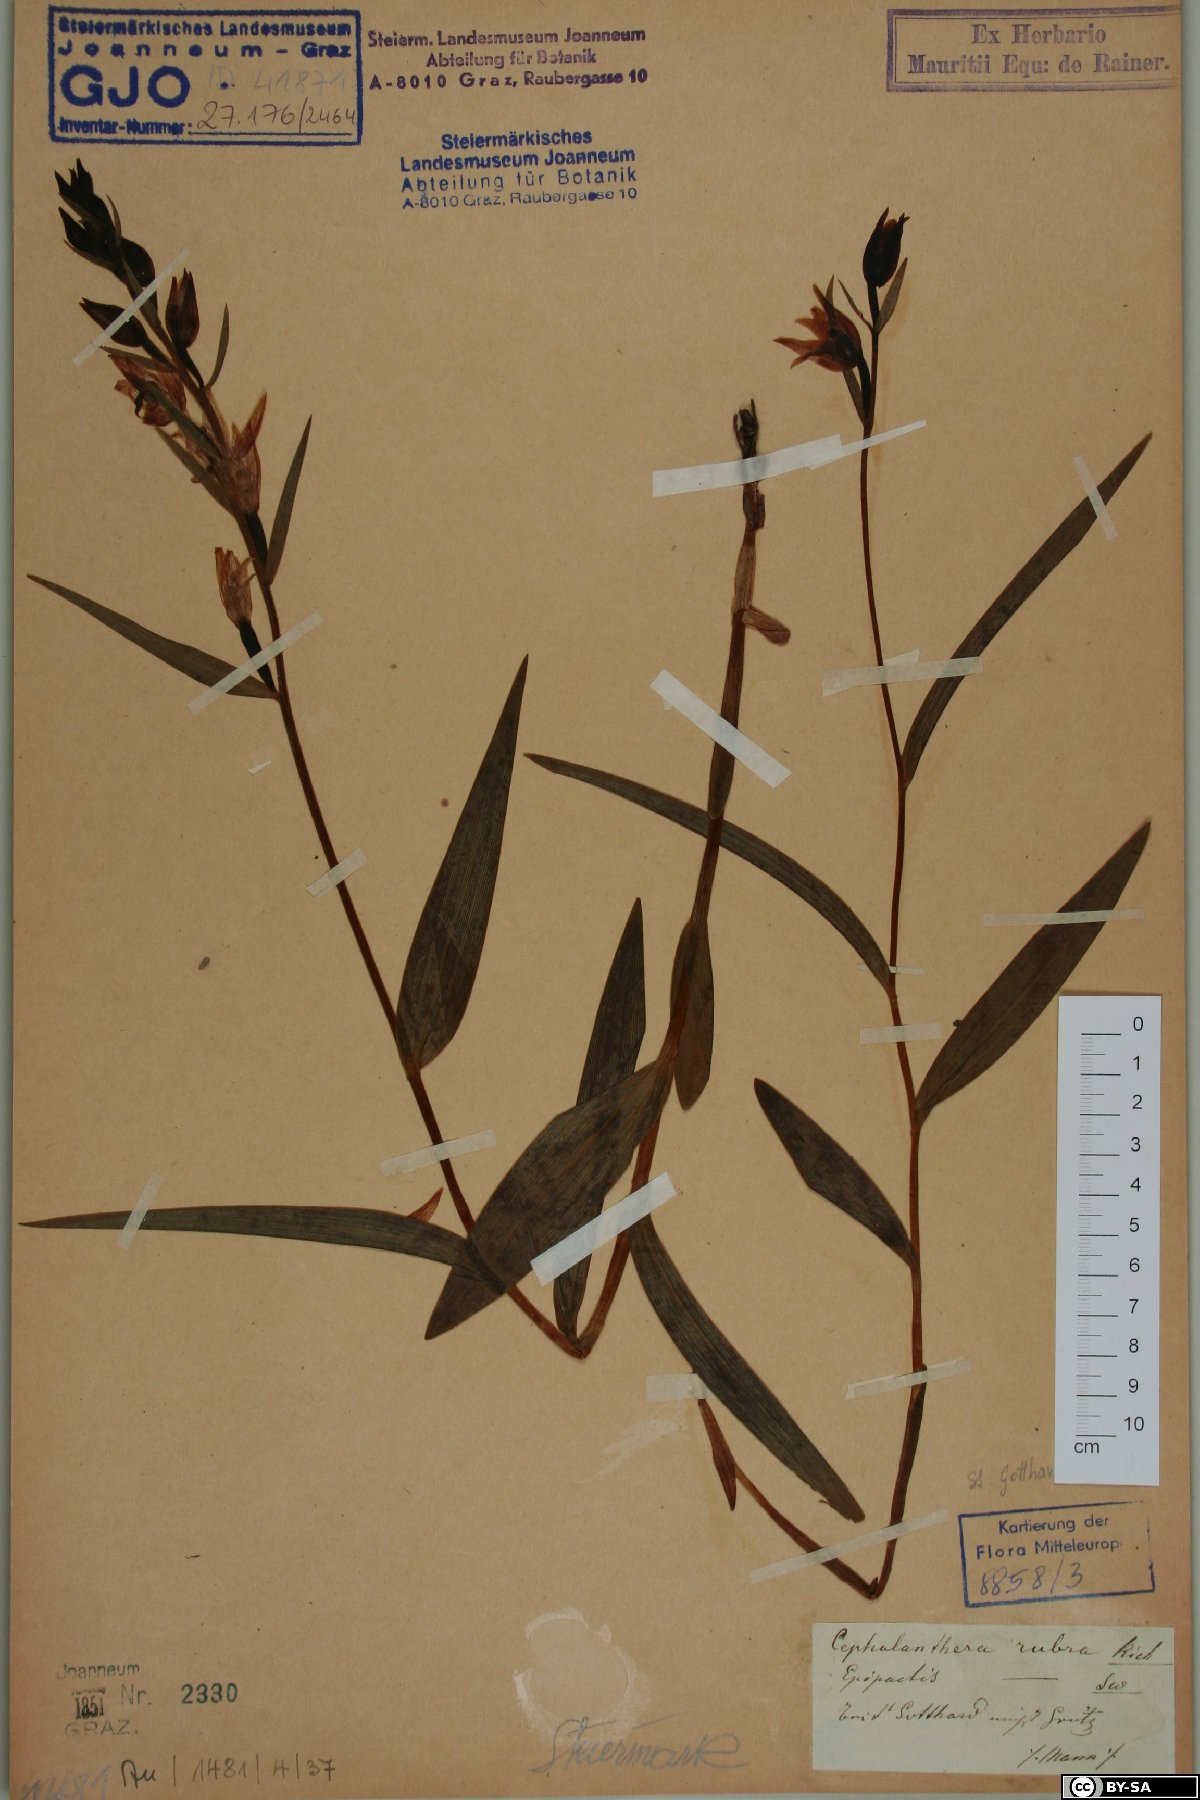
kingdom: Plantae
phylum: Tracheophyta
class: Liliopsida
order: Asparagales
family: Orchidaceae
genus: Cephalanthera
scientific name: Cephalanthera rubra
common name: Red helleborine
